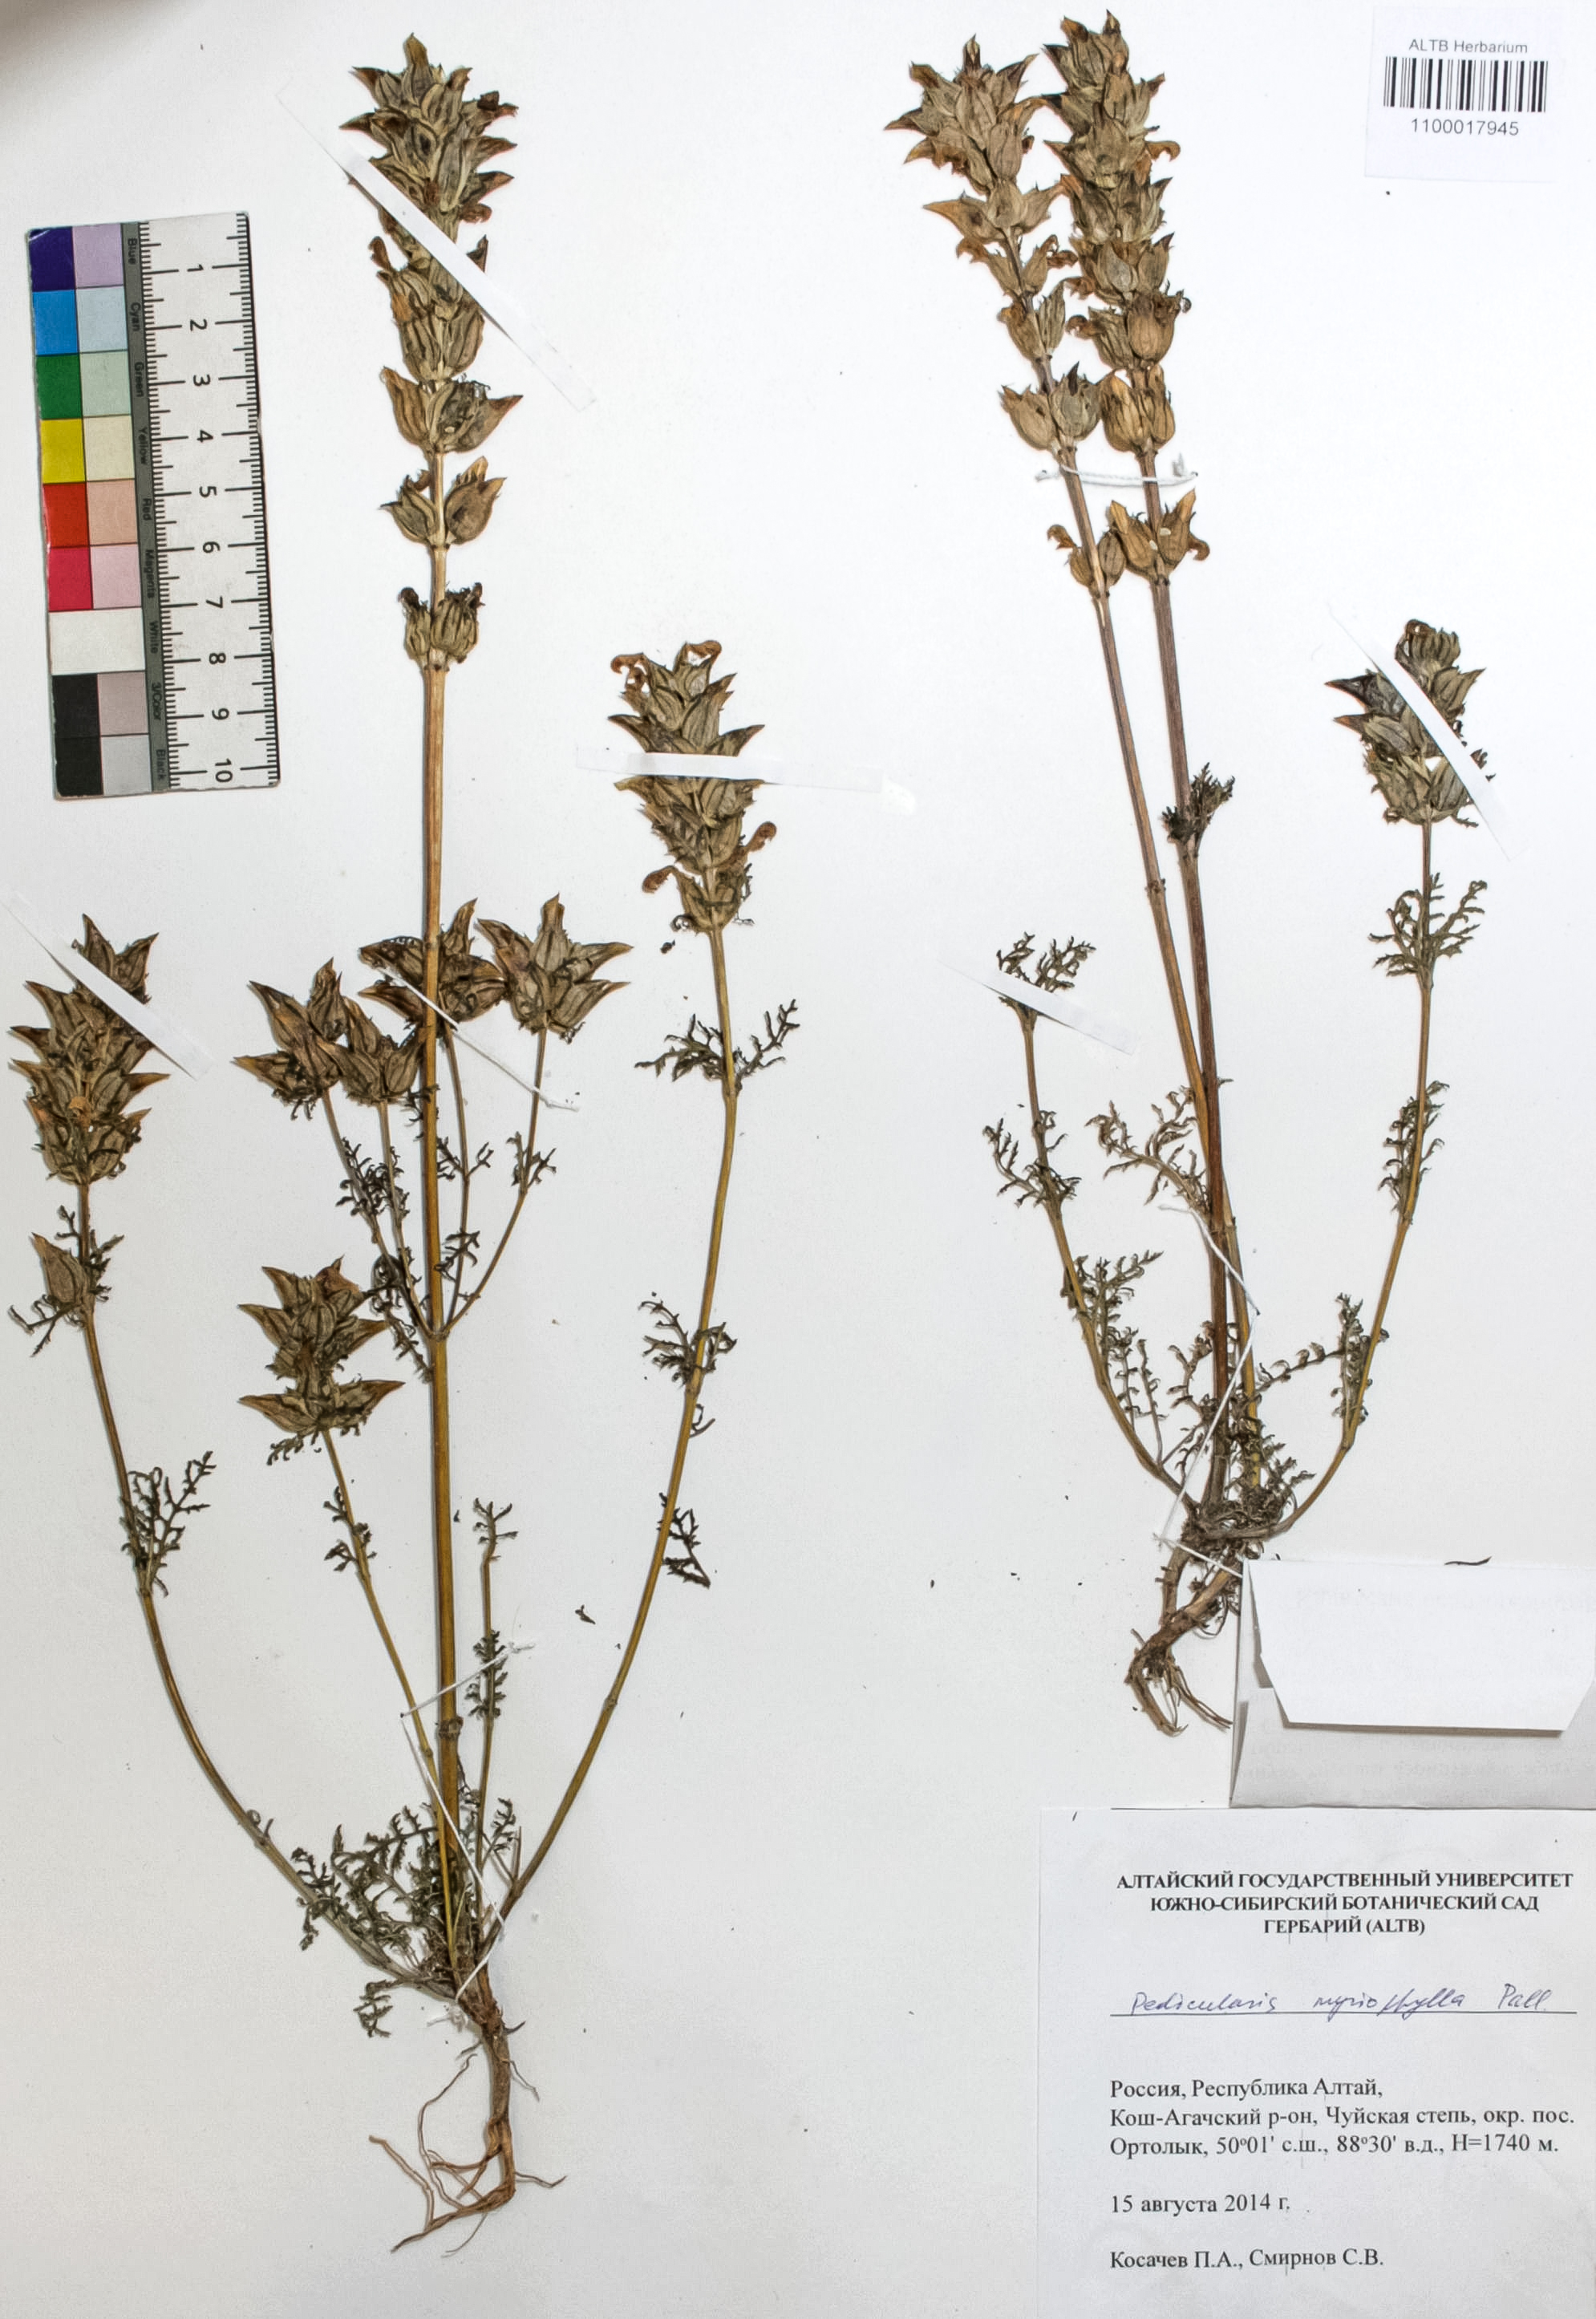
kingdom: Plantae
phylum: Tracheophyta
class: Magnoliopsida
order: Lamiales
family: Orobanchaceae
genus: Pedicularis
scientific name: Pedicularis myriophylla
